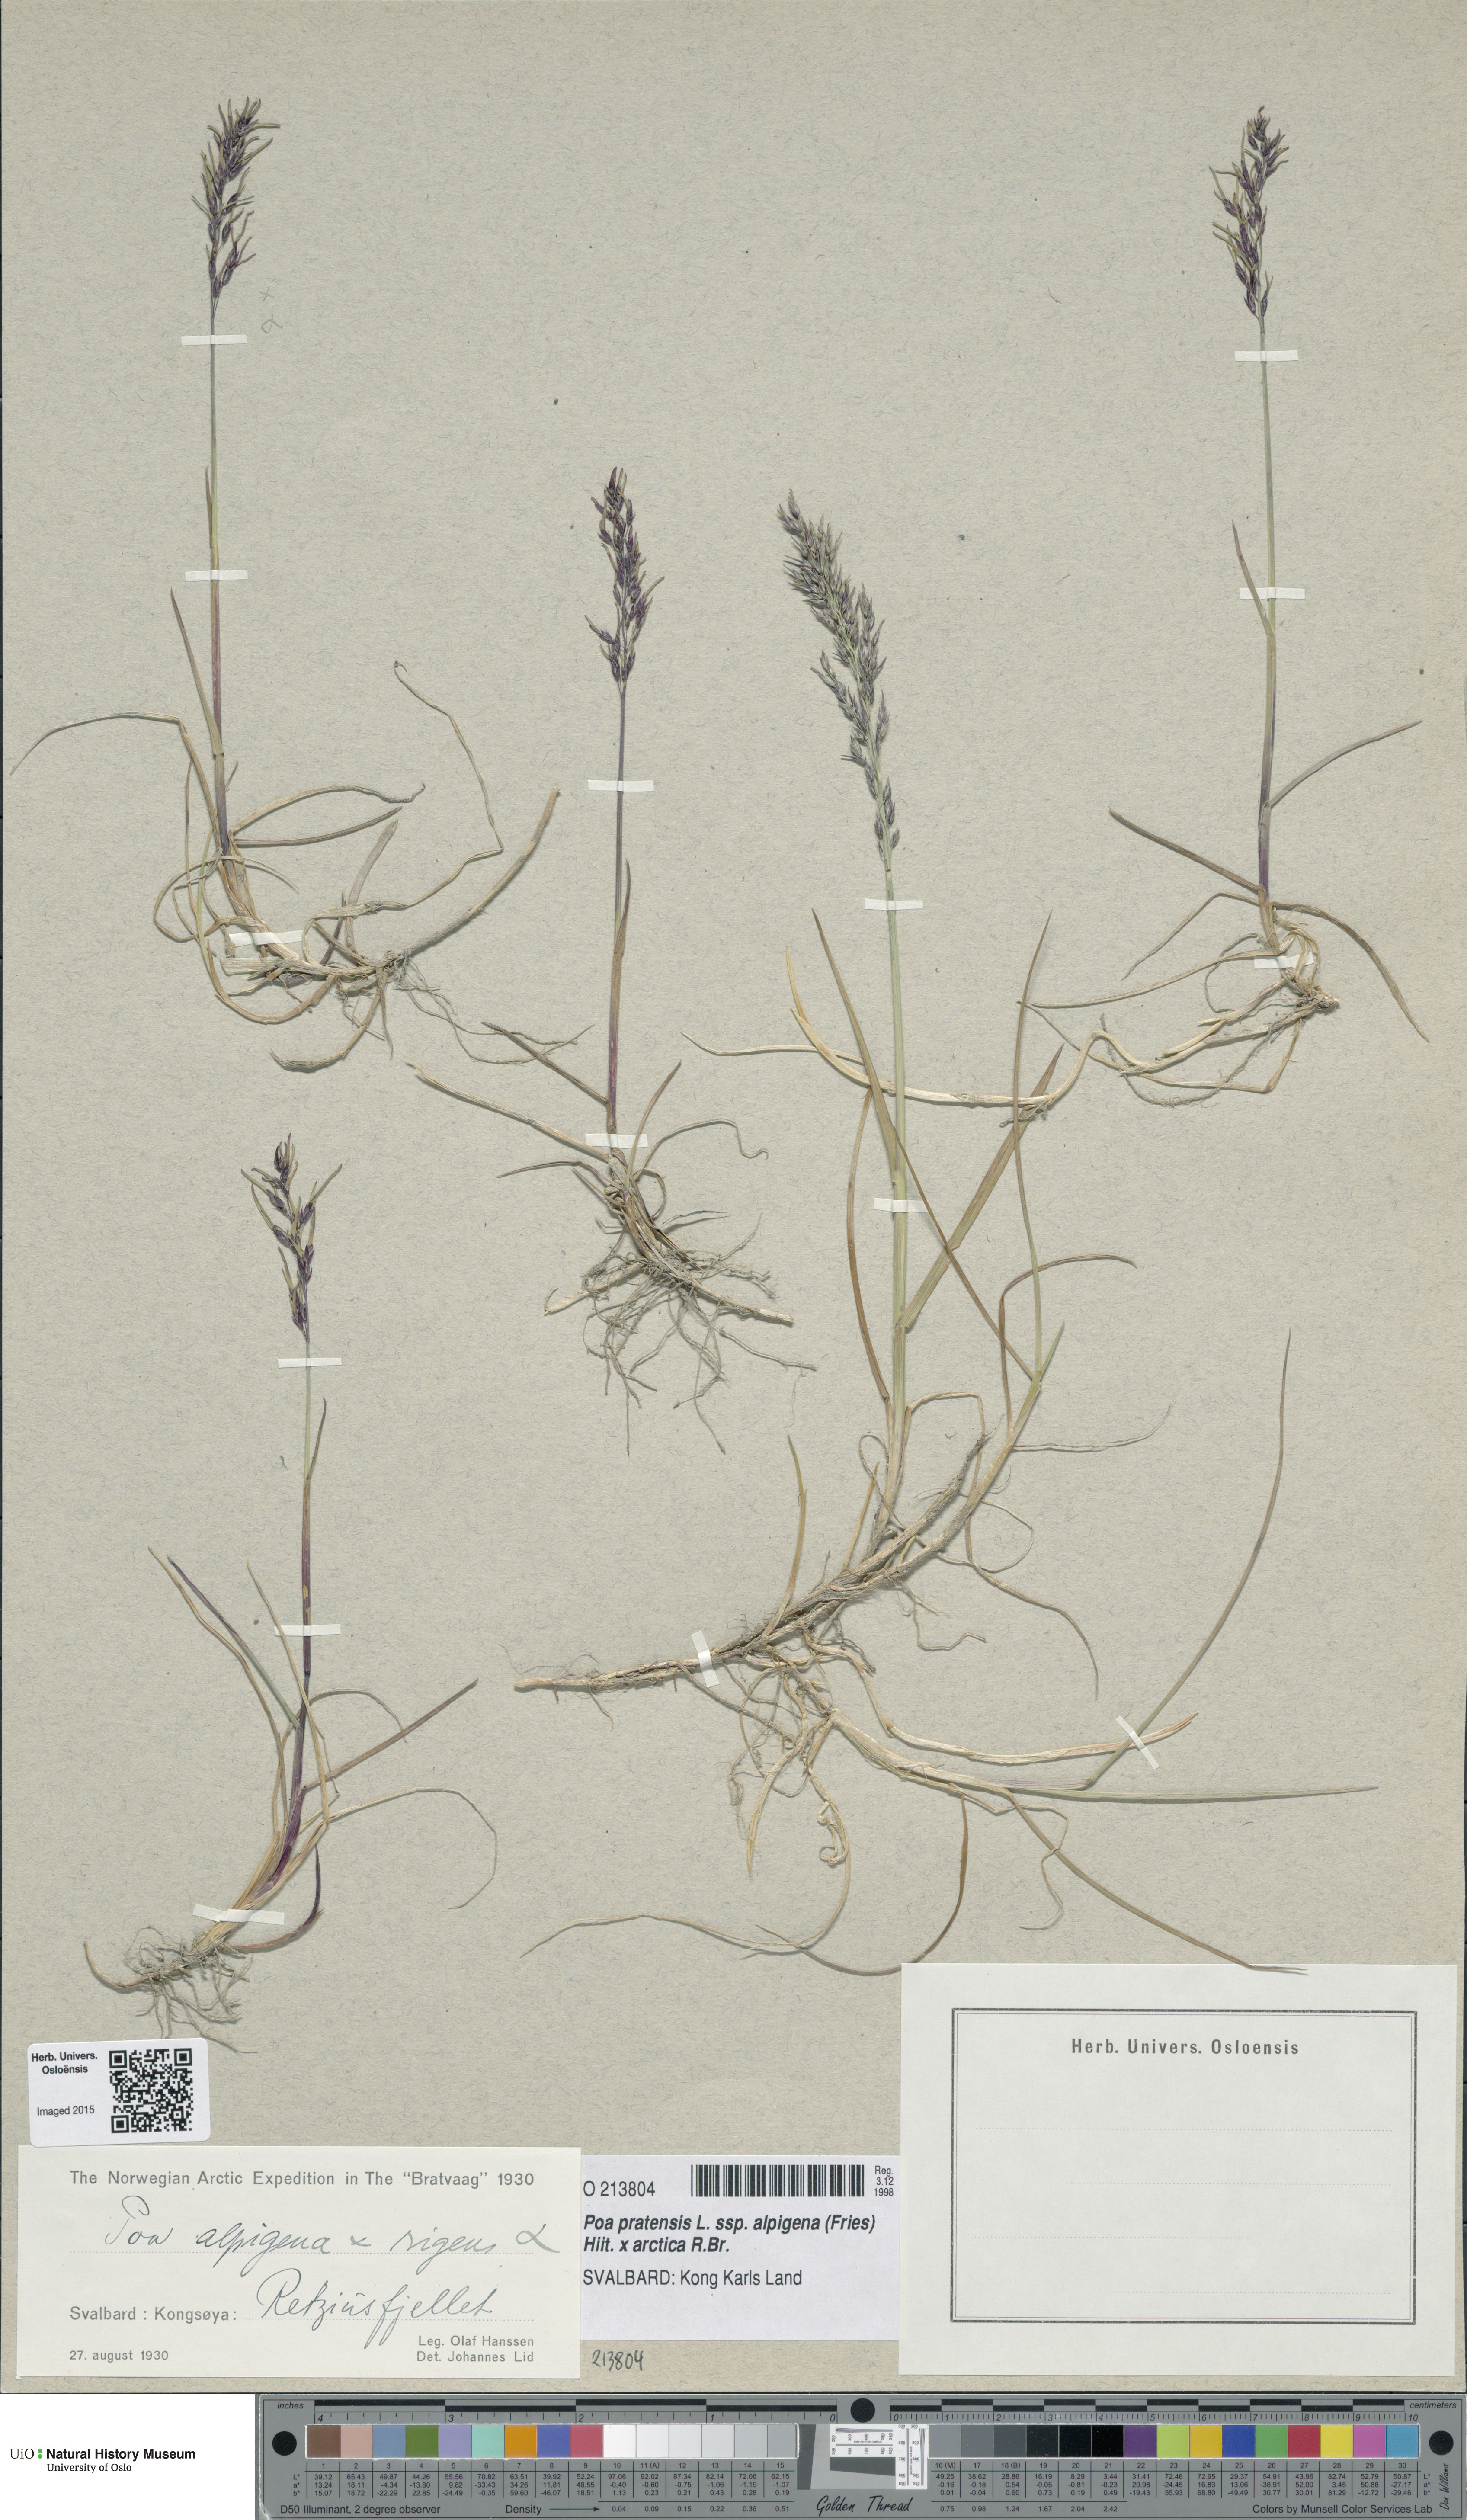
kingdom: Plantae
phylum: Tracheophyta
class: Liliopsida
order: Poales
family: Poaceae
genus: Poa
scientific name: Poa
